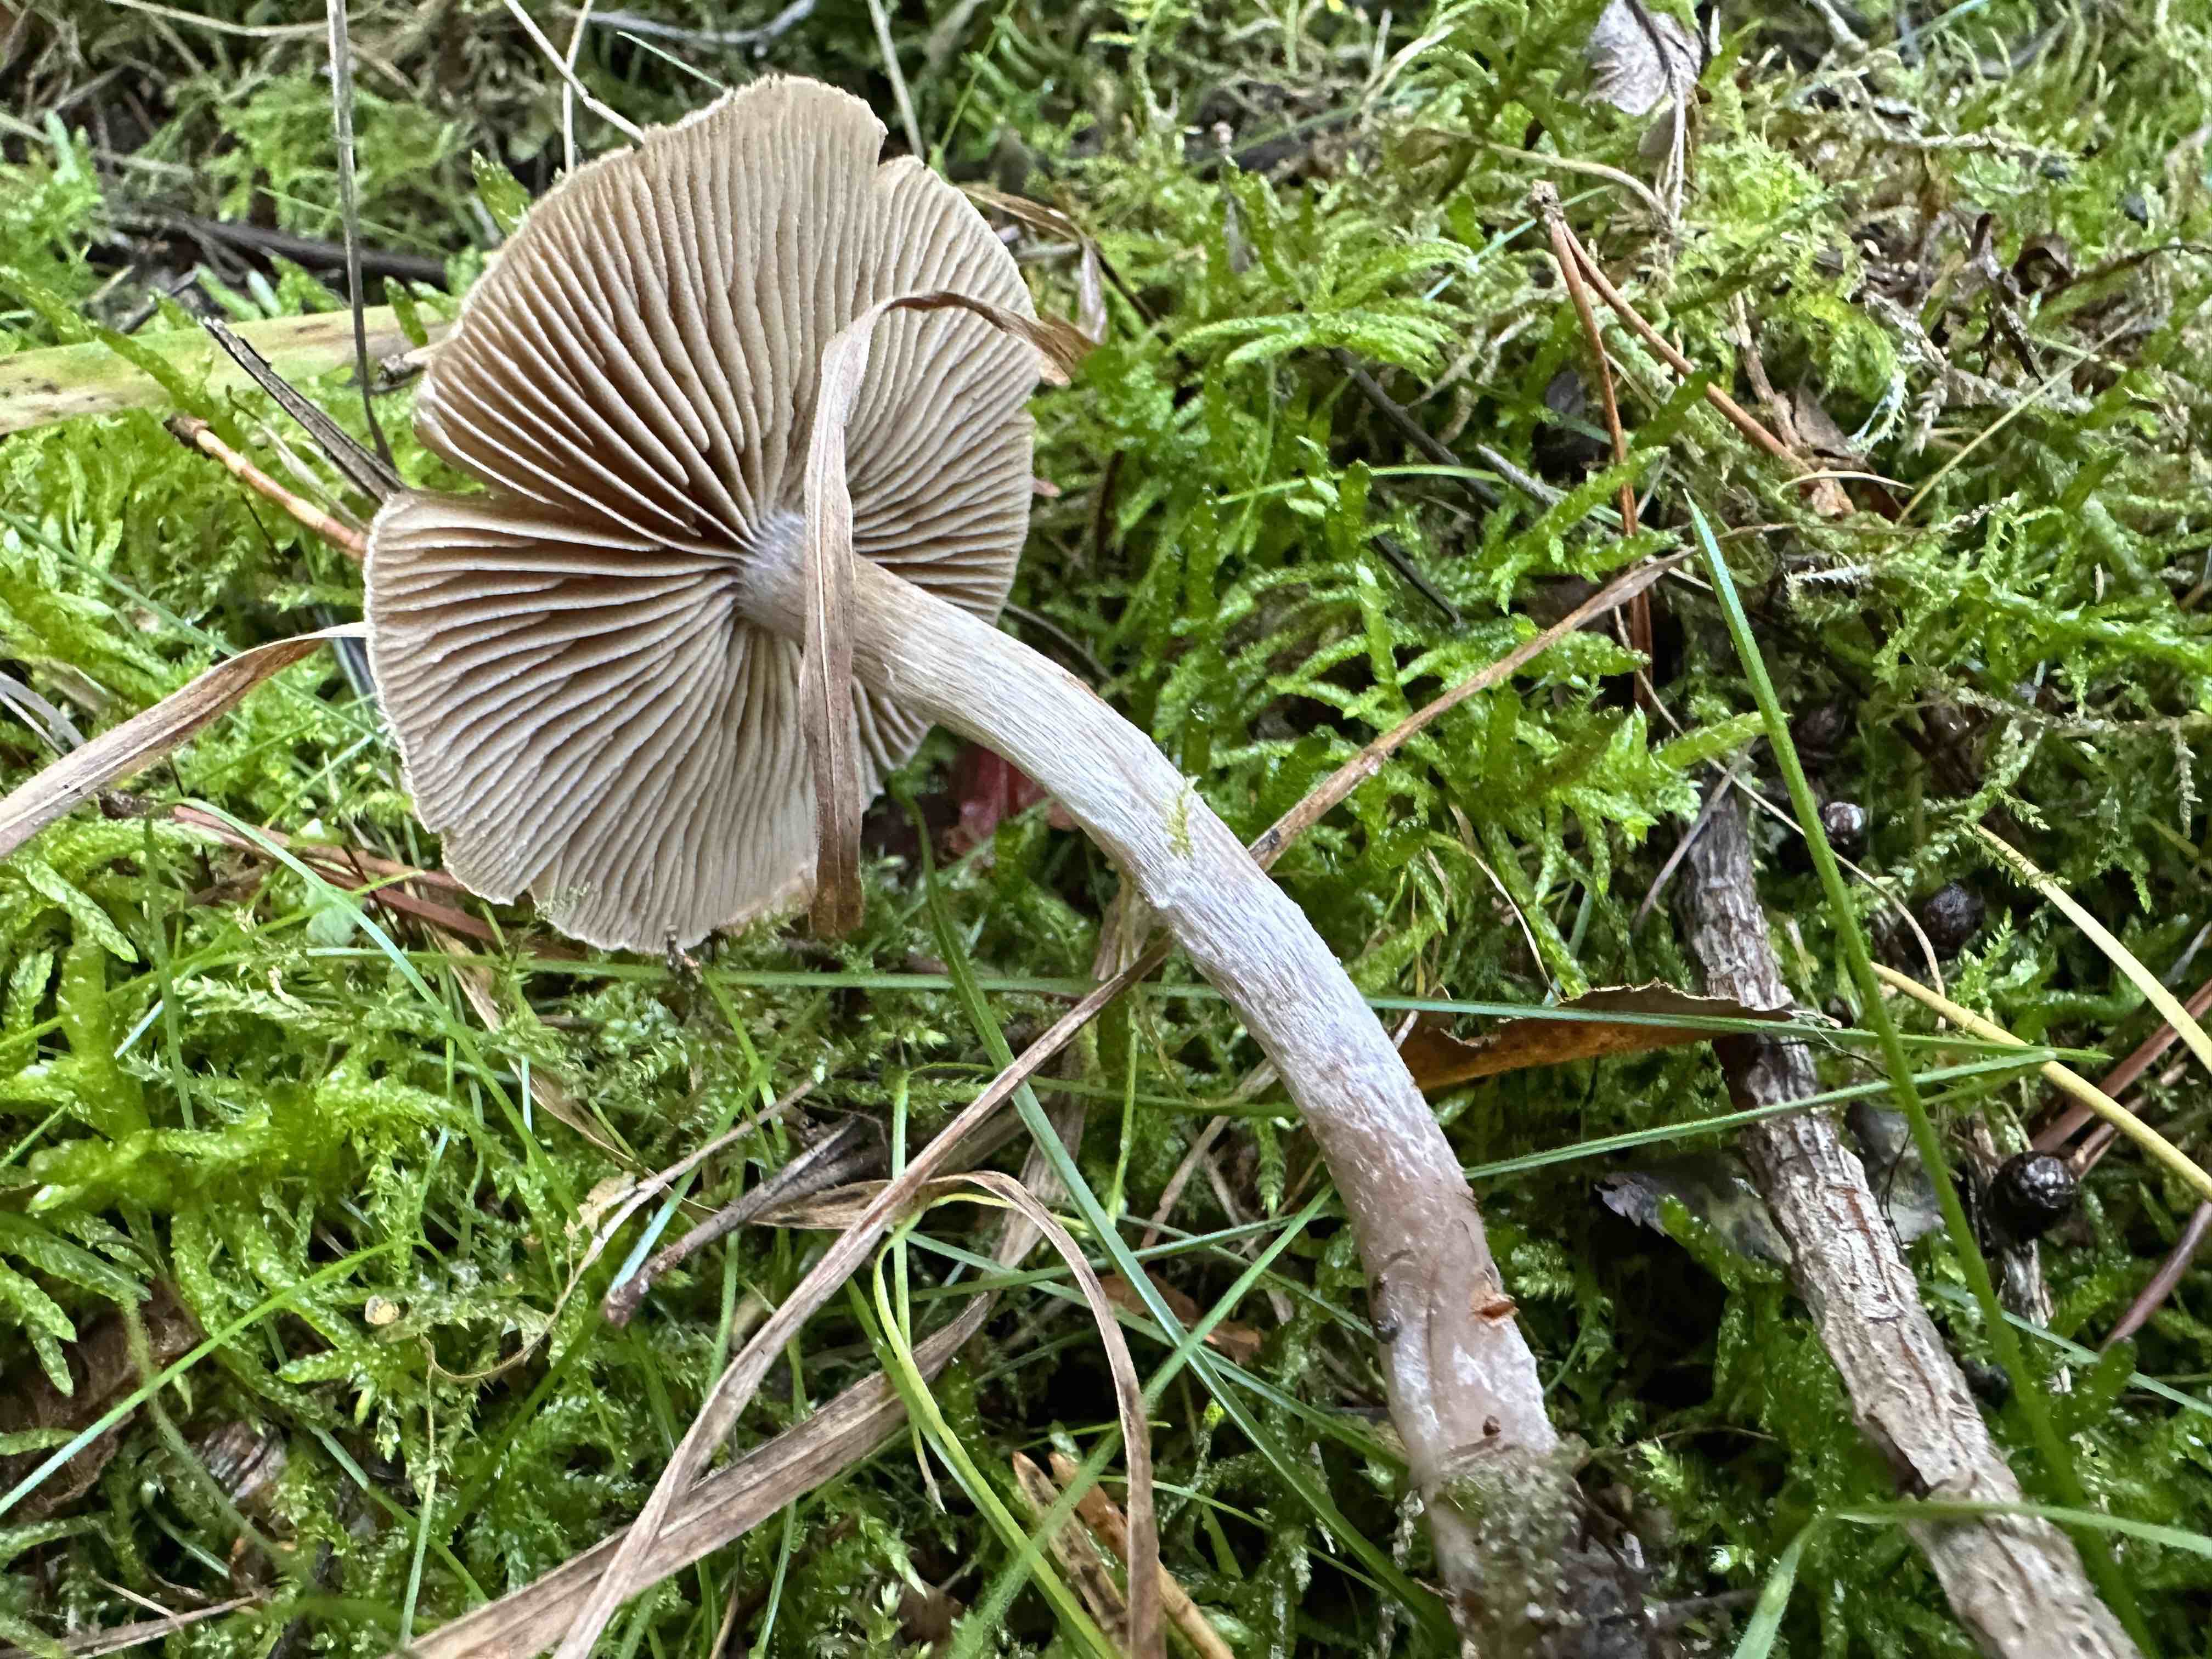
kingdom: Fungi
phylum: Basidiomycota
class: Agaricomycetes
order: Agaricales
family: Cortinariaceae
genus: Cortinarius
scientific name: Cortinarius hemitrichus
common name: hvidfnugget slørhat
